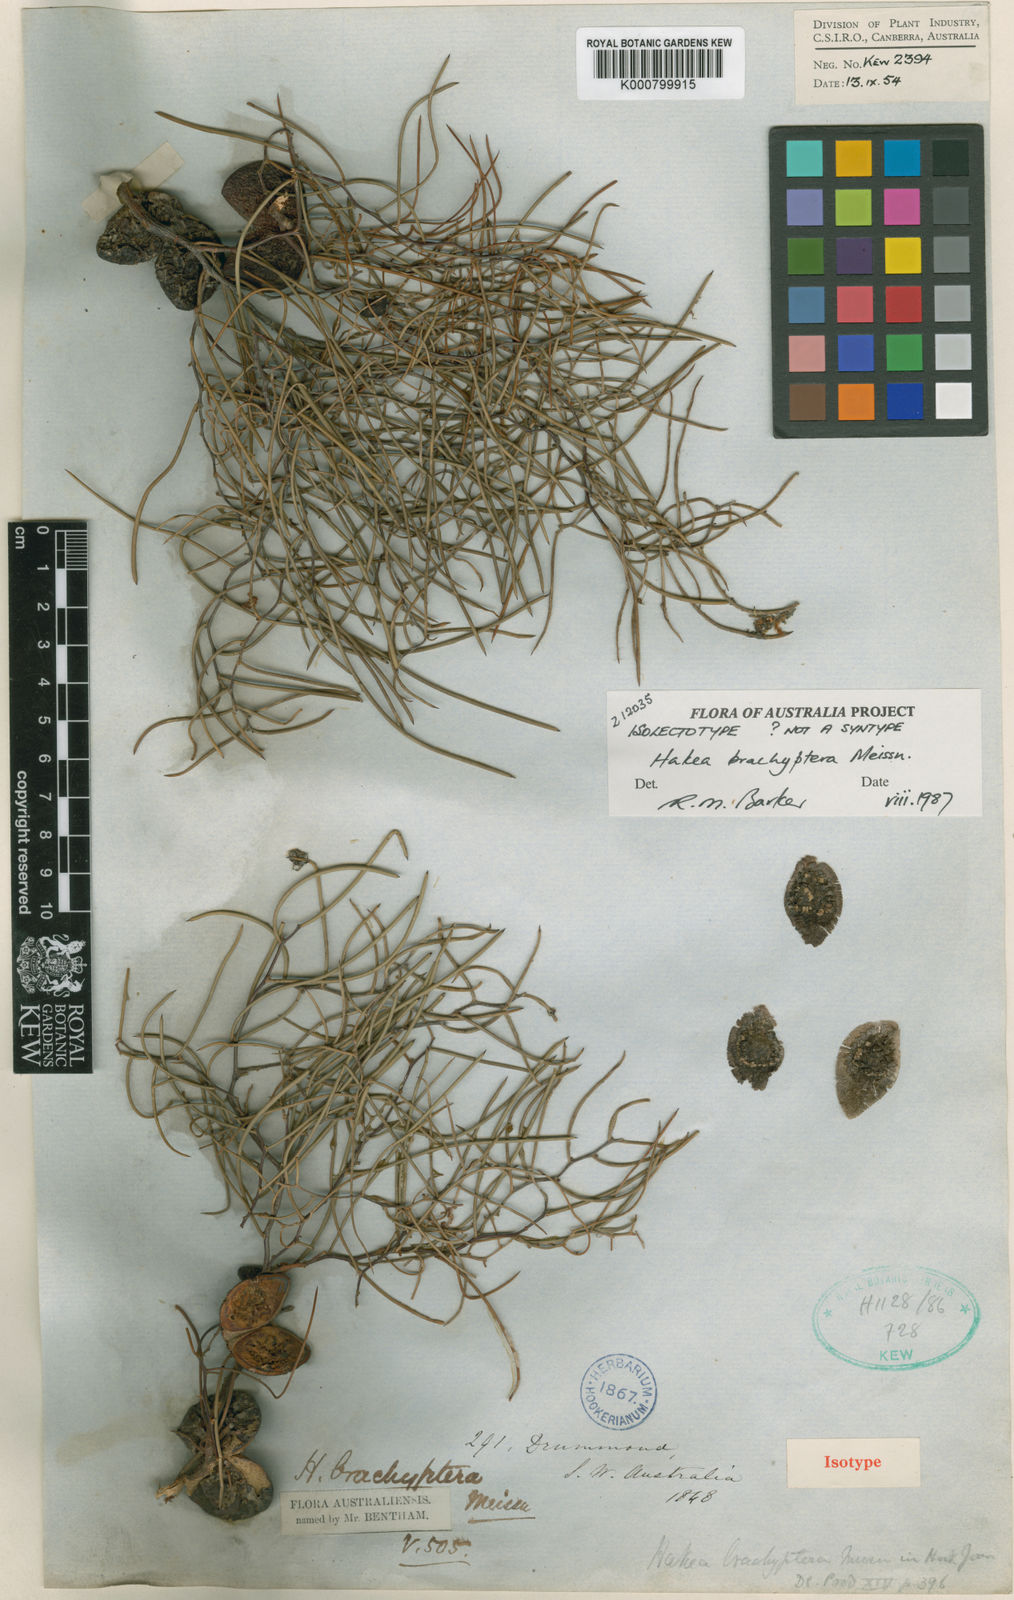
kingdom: Plantae
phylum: Tracheophyta
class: Magnoliopsida
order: Proteales
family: Proteaceae
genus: Hakea
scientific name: Hakea brachyptera
